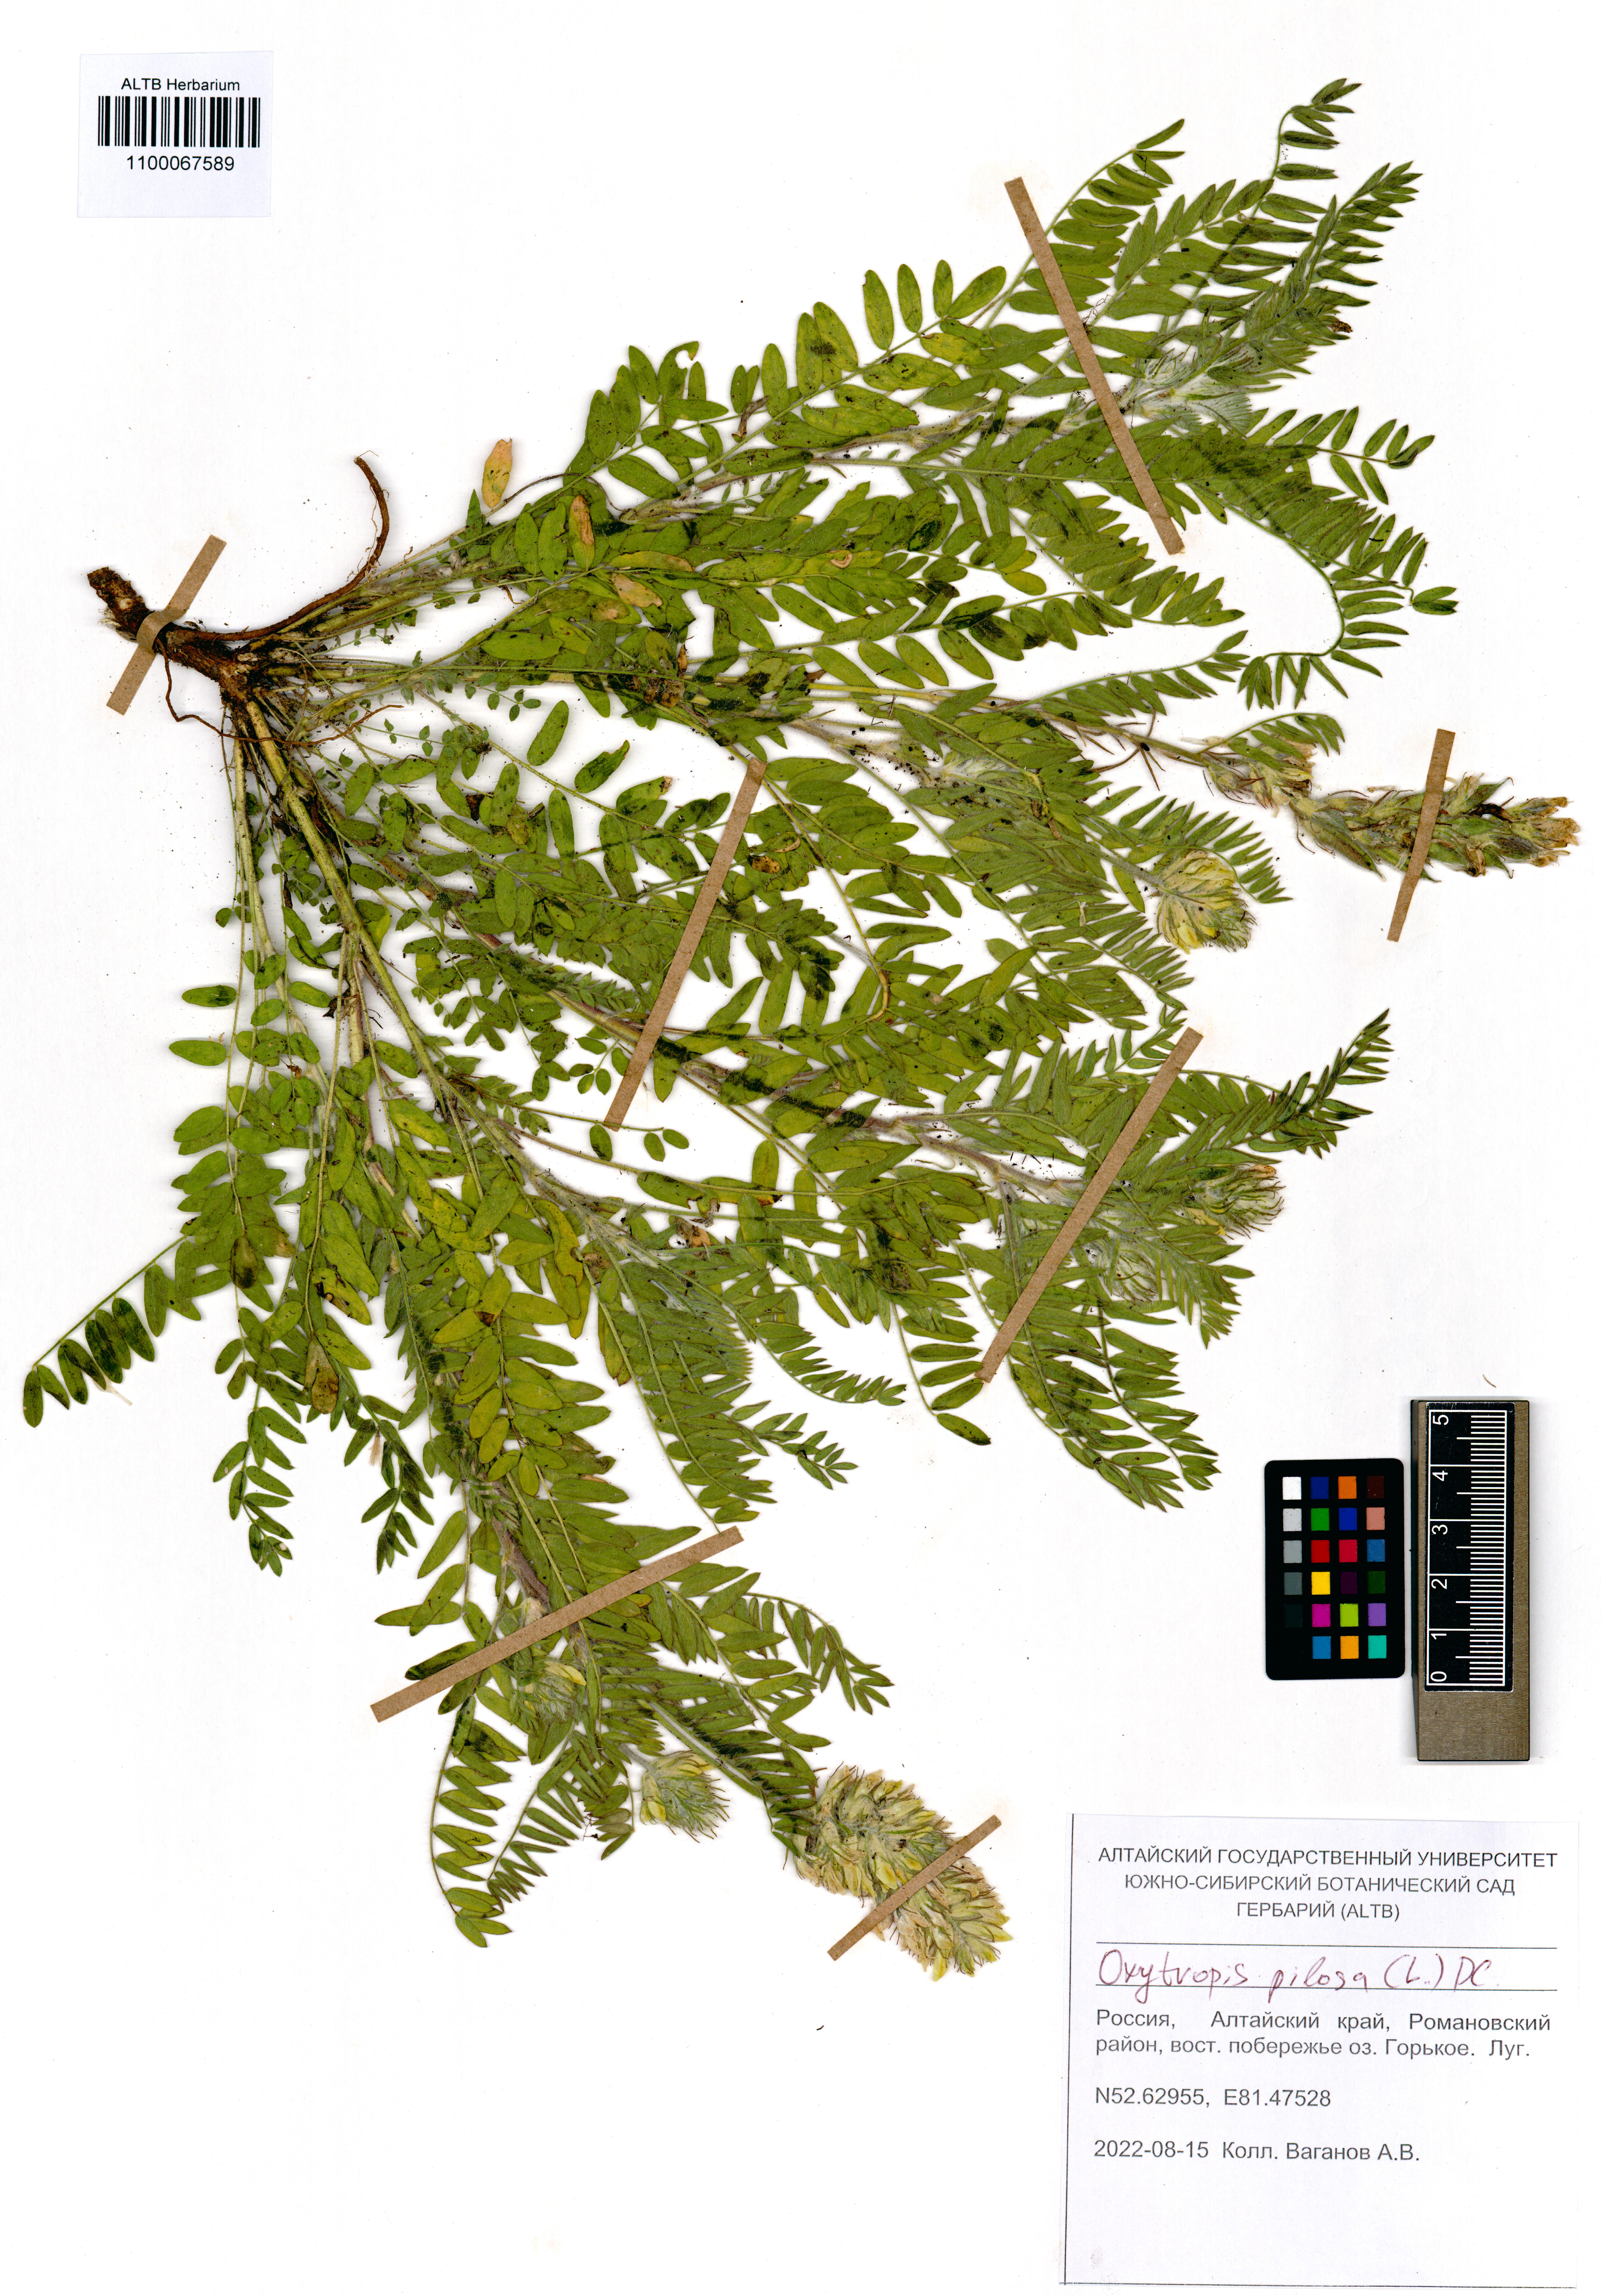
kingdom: Plantae
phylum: Tracheophyta
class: Magnoliopsida
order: Fabales
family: Fabaceae
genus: Oxytropis
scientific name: Oxytropis pilosa
